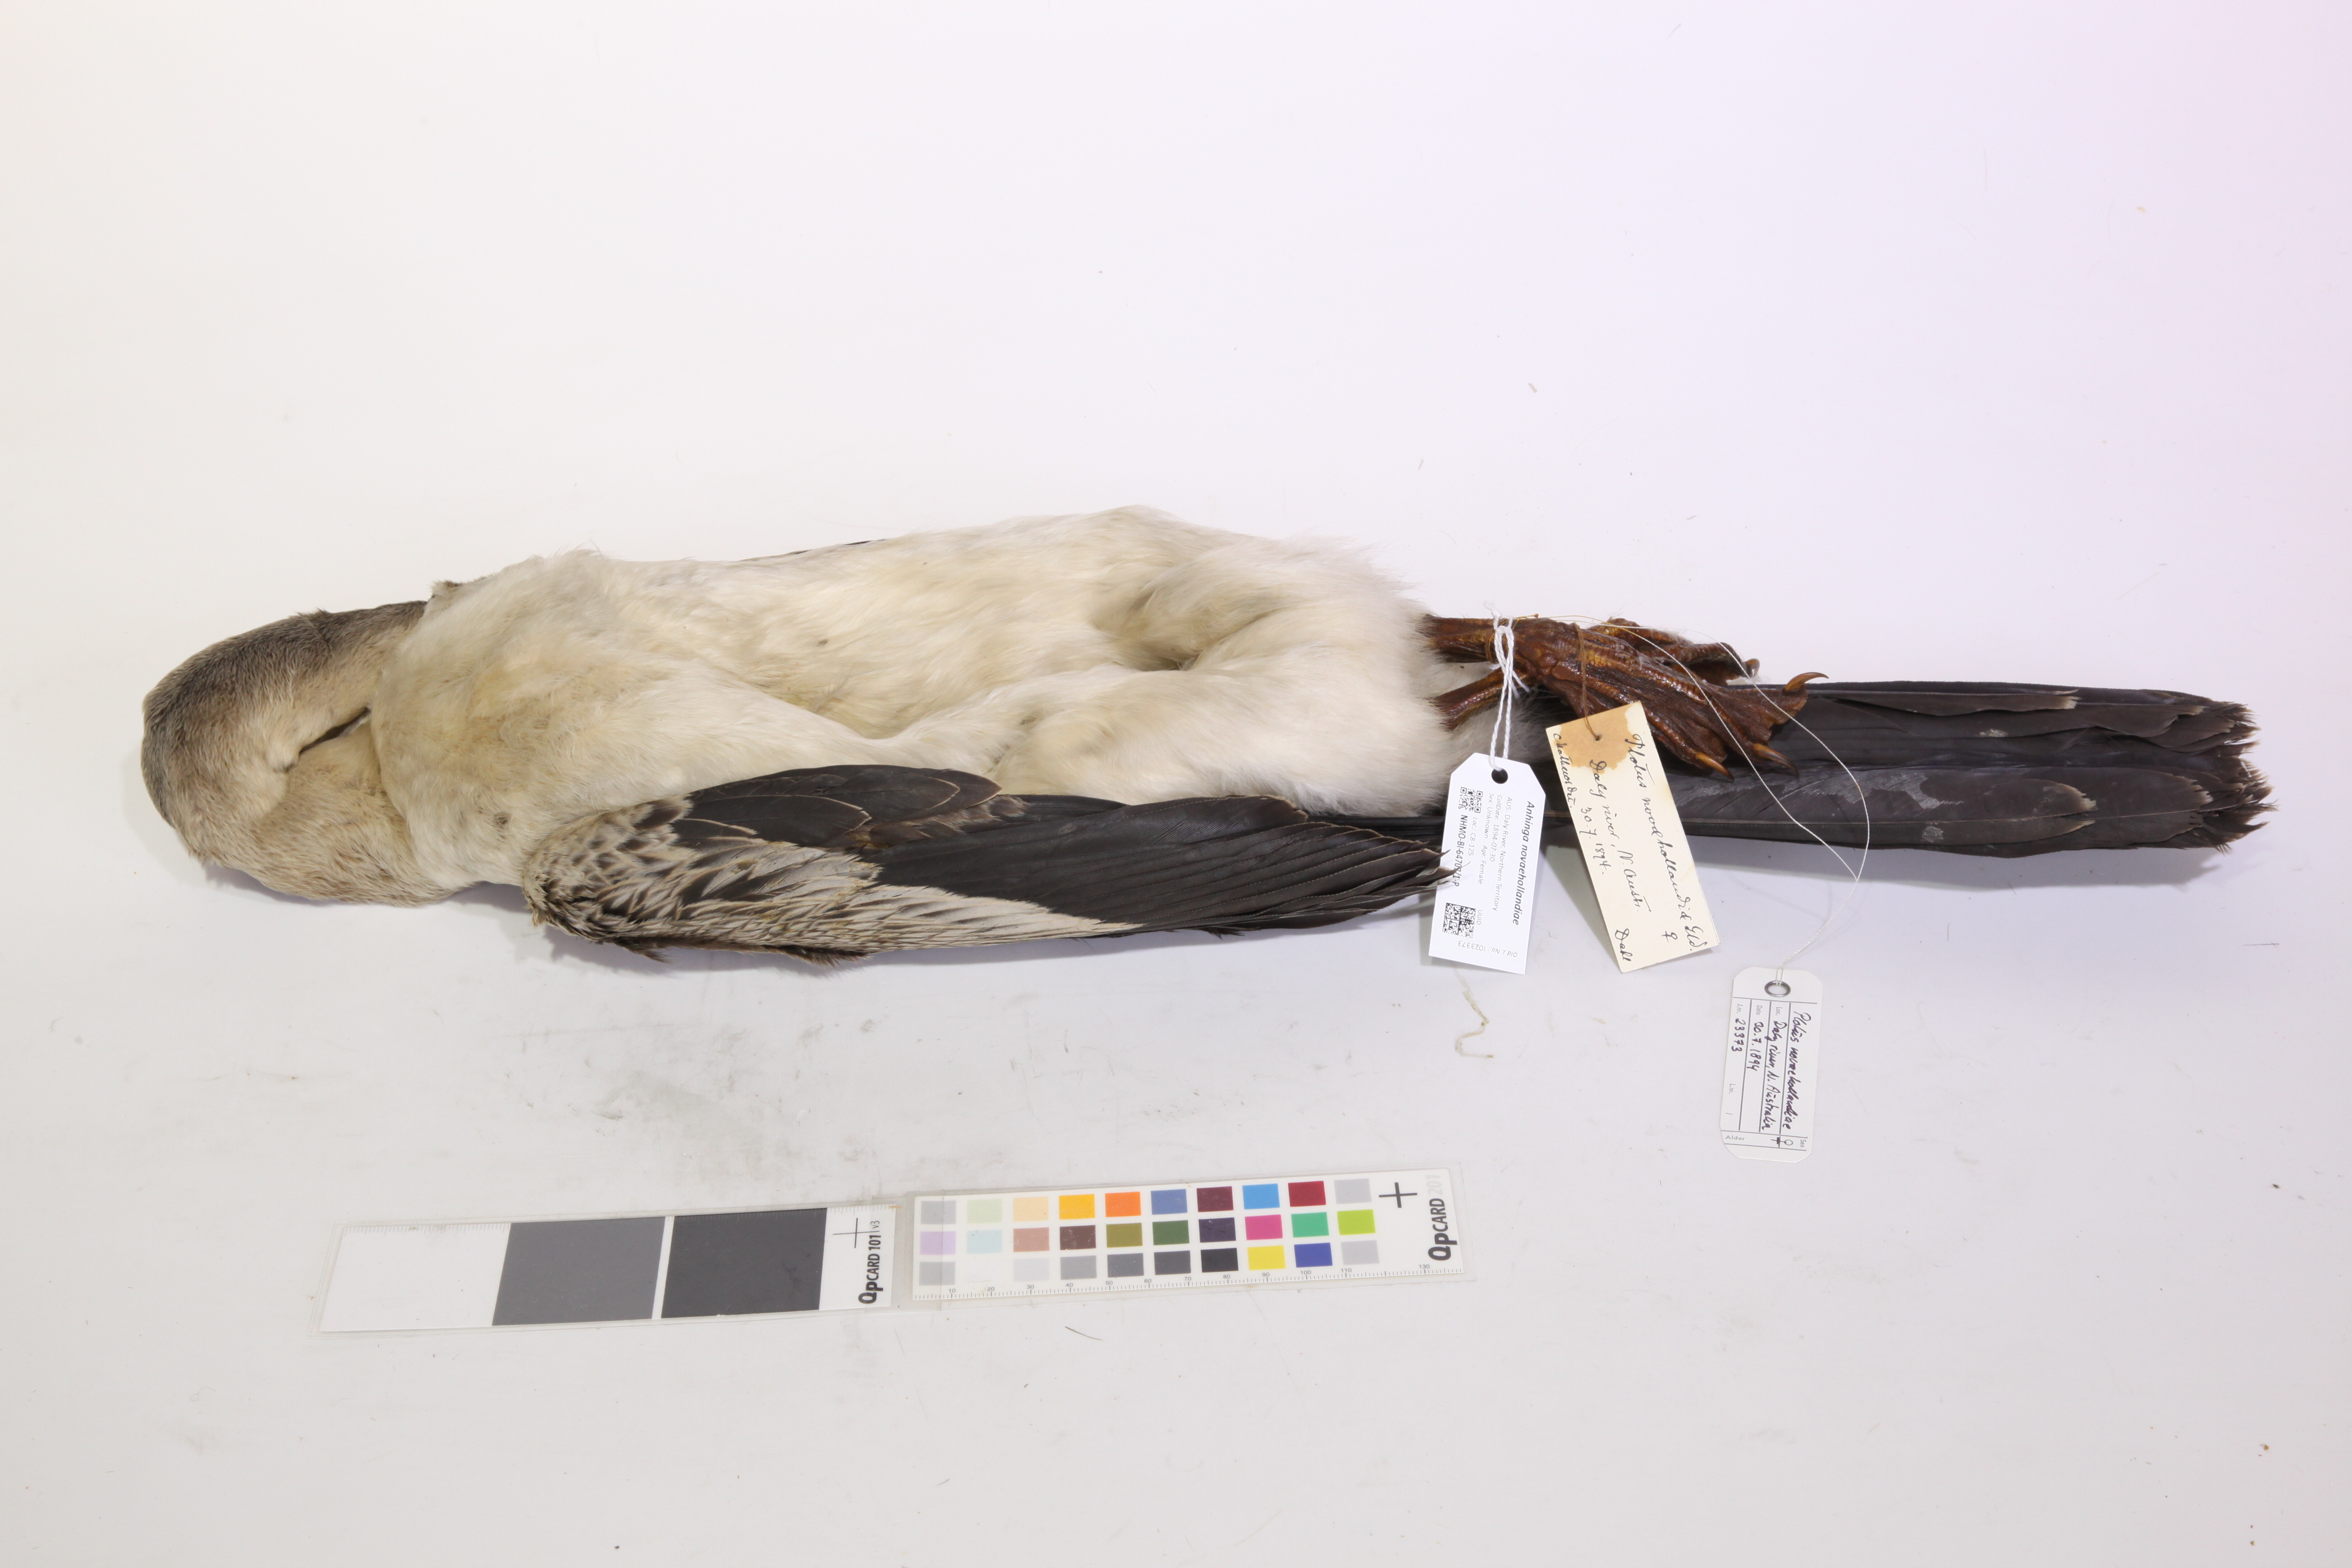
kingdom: Animalia
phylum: Chordata
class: Aves
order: Suliformes
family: Anhingidae
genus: Anhinga
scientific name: Anhinga novaehollandiae
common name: Australasian darter
